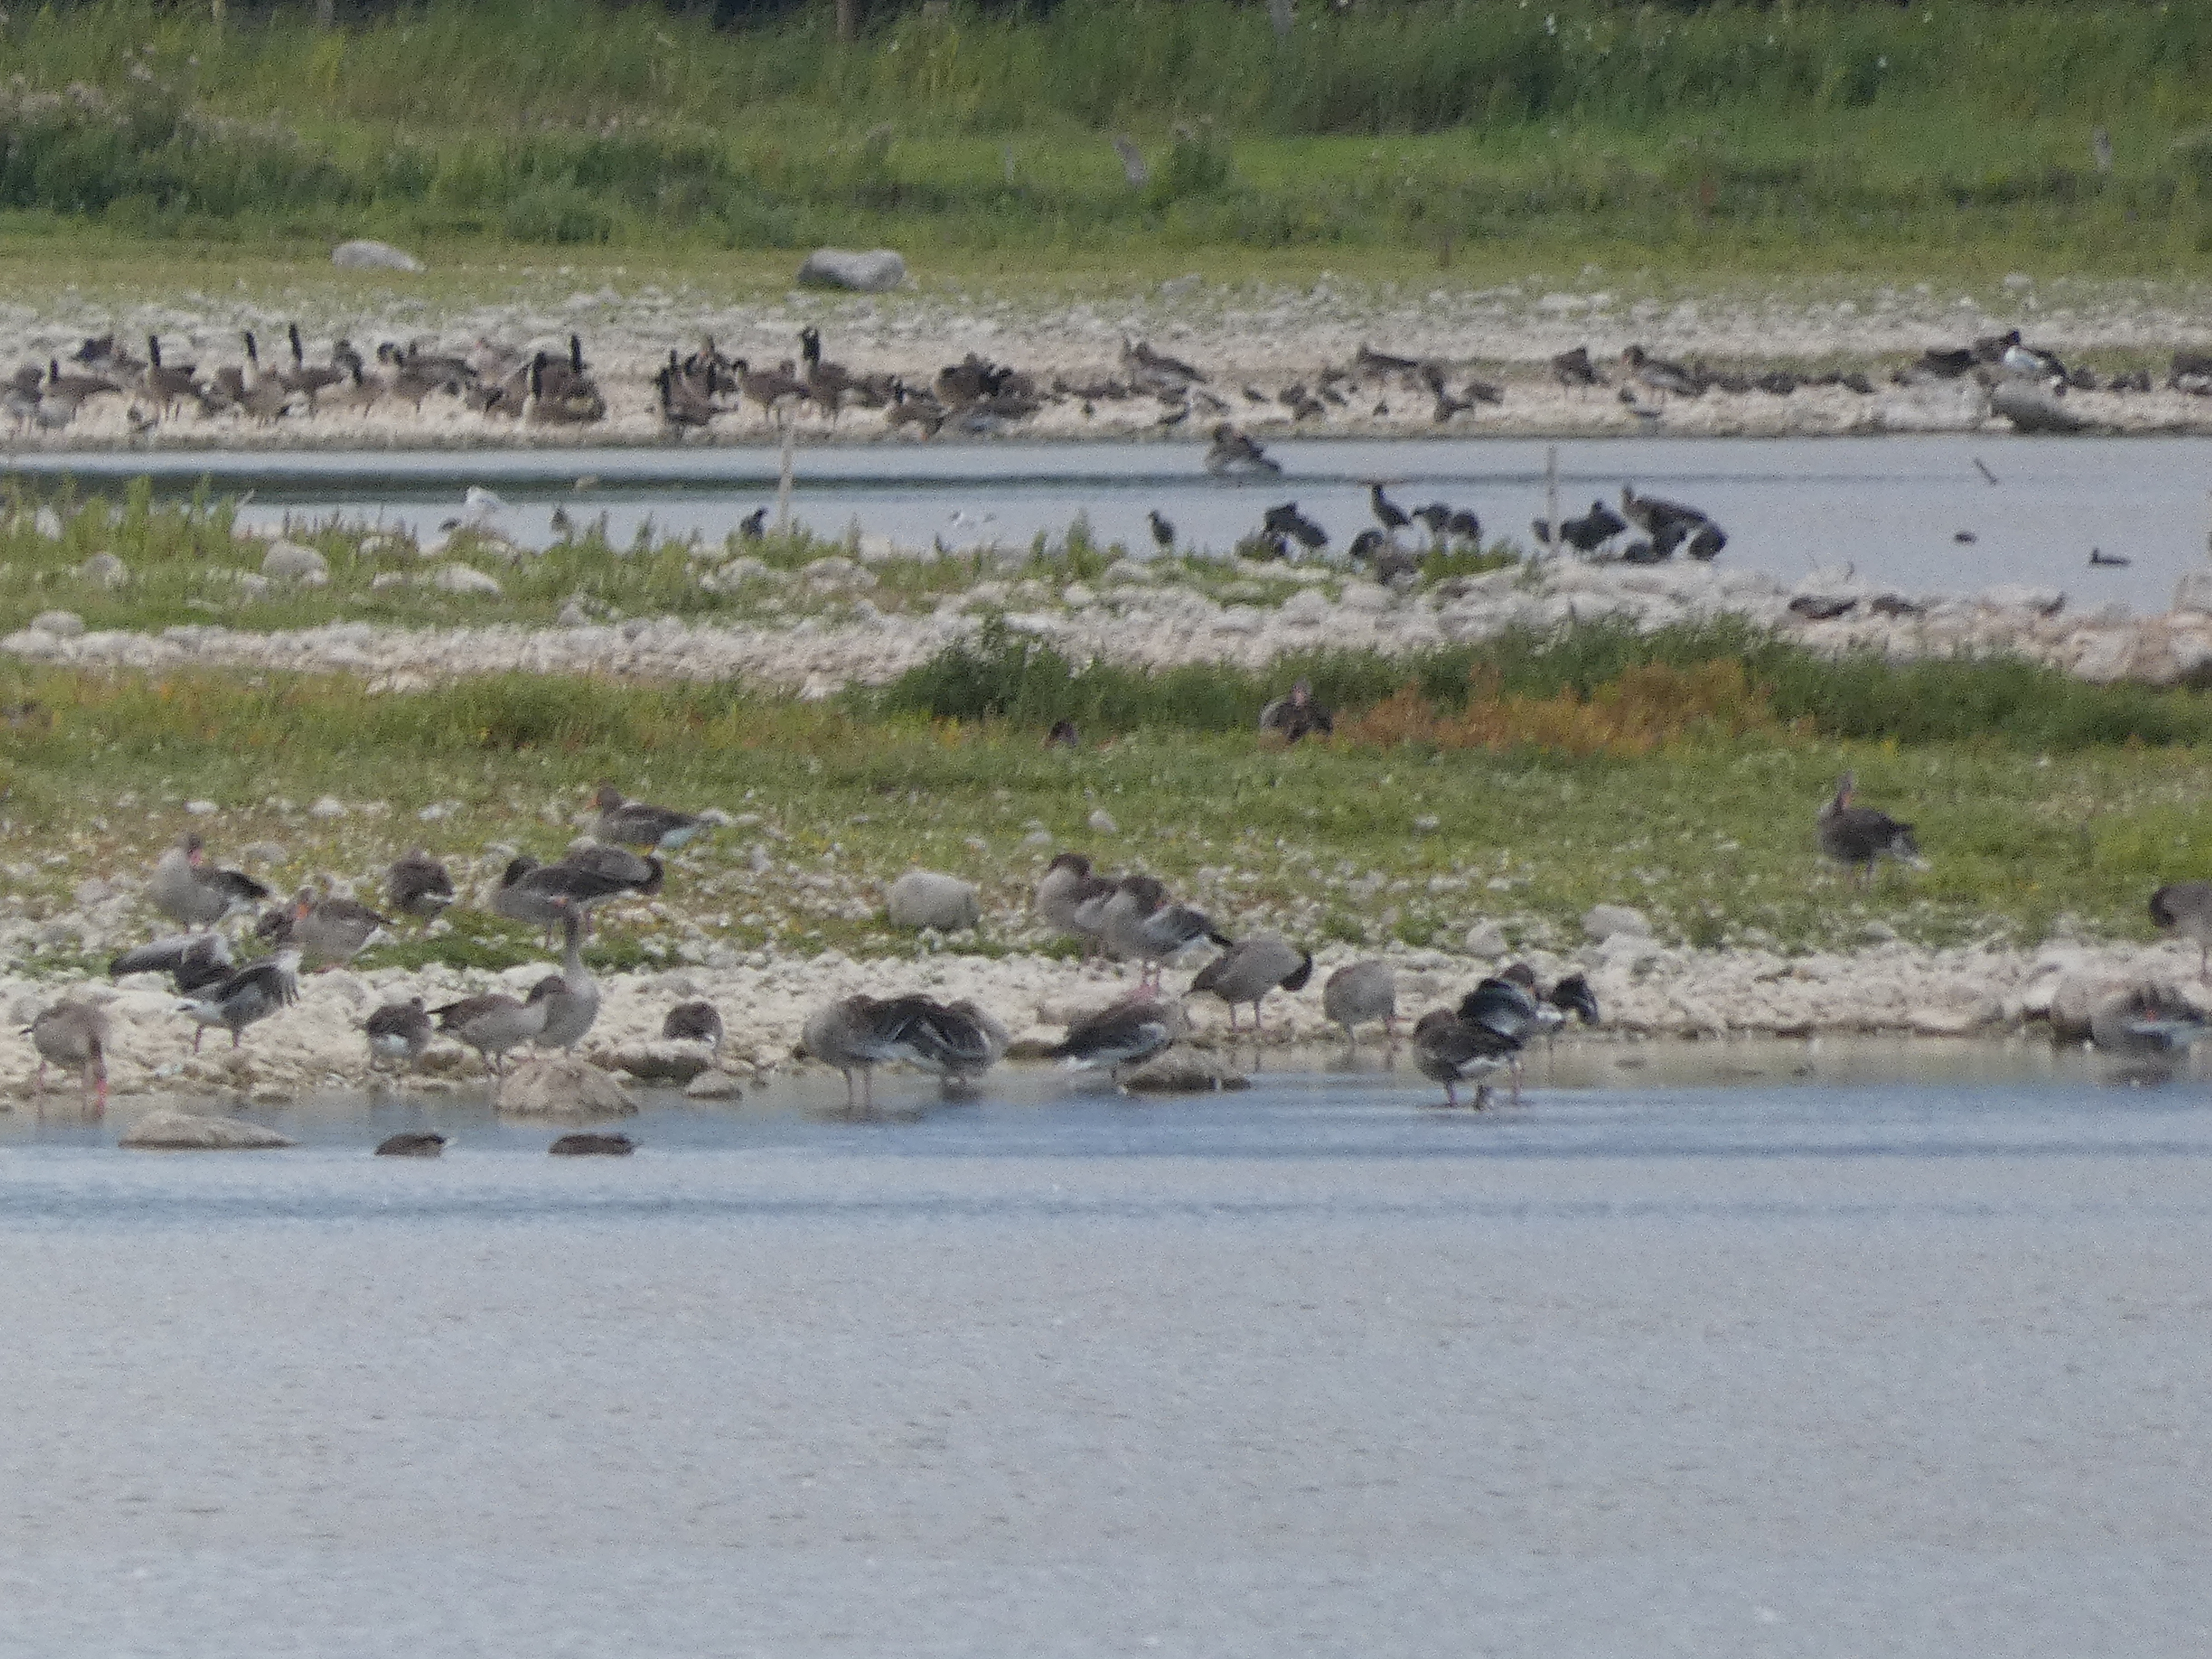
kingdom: Animalia
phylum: Chordata
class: Aves
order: Anseriformes
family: Anatidae
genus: Branta
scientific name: Branta canadensis
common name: Canadagås
